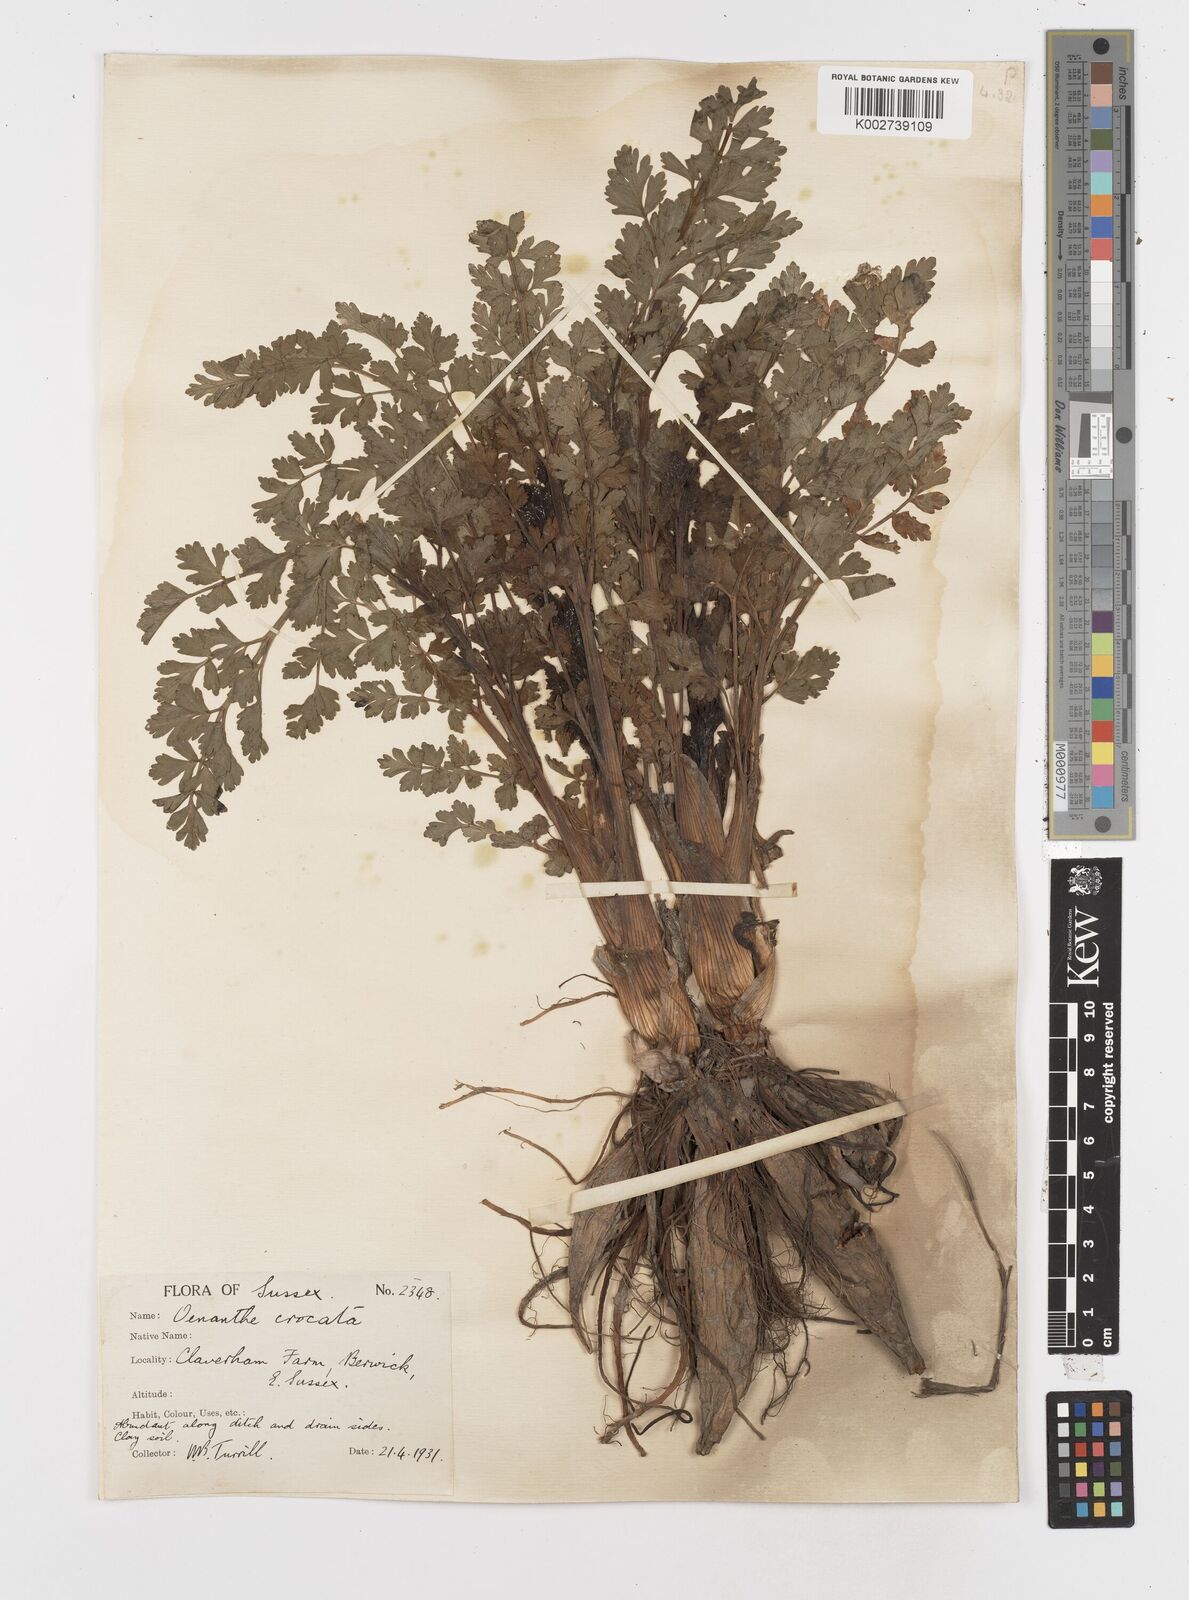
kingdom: Plantae
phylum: Tracheophyta
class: Magnoliopsida
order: Apiales
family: Apiaceae
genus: Oenanthe
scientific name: Oenanthe crocata
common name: Hemlock water-dropwort
